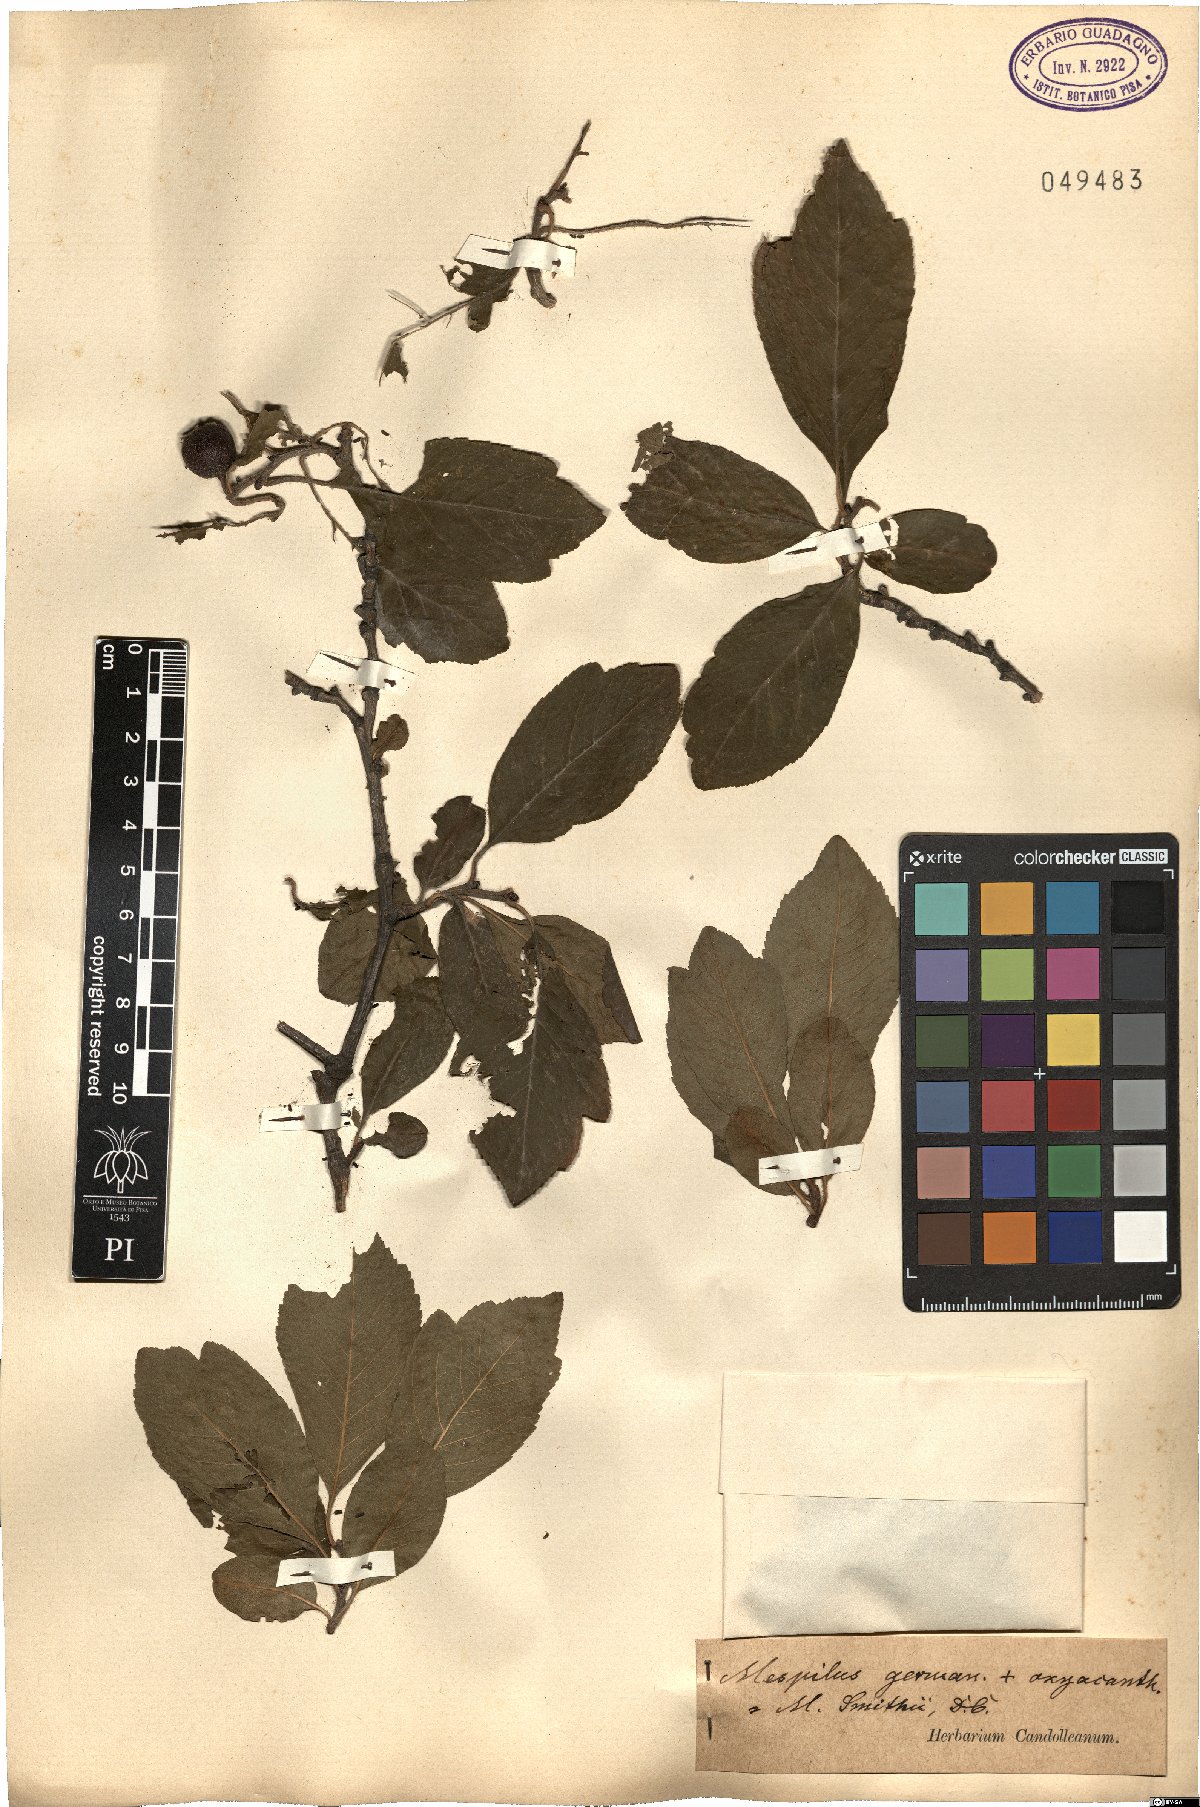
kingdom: Plantae
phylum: Tracheophyta
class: Magnoliopsida
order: Rosales
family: Rosaceae
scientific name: Rosaceae
